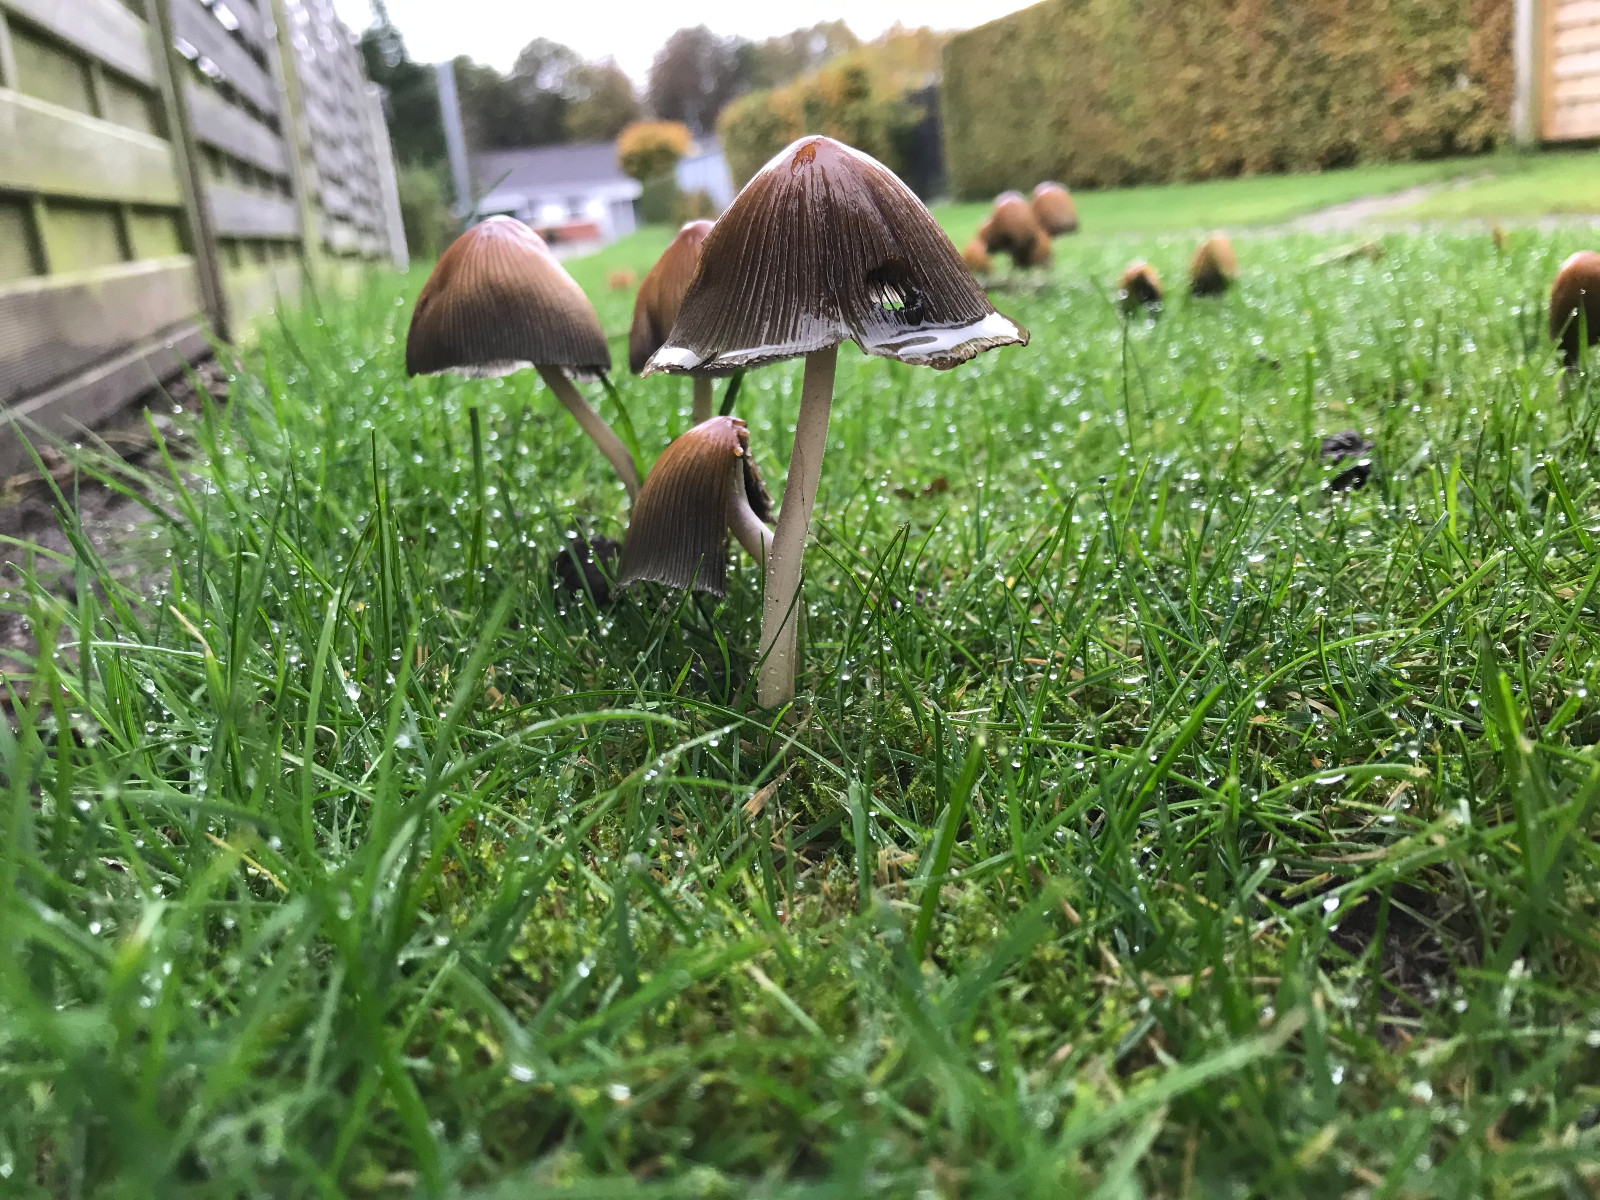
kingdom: Fungi
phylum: Basidiomycota
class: Agaricomycetes
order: Agaricales
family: Psathyrellaceae
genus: Coprinellus
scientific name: Coprinellus micaceus
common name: glimmer-blækhat
